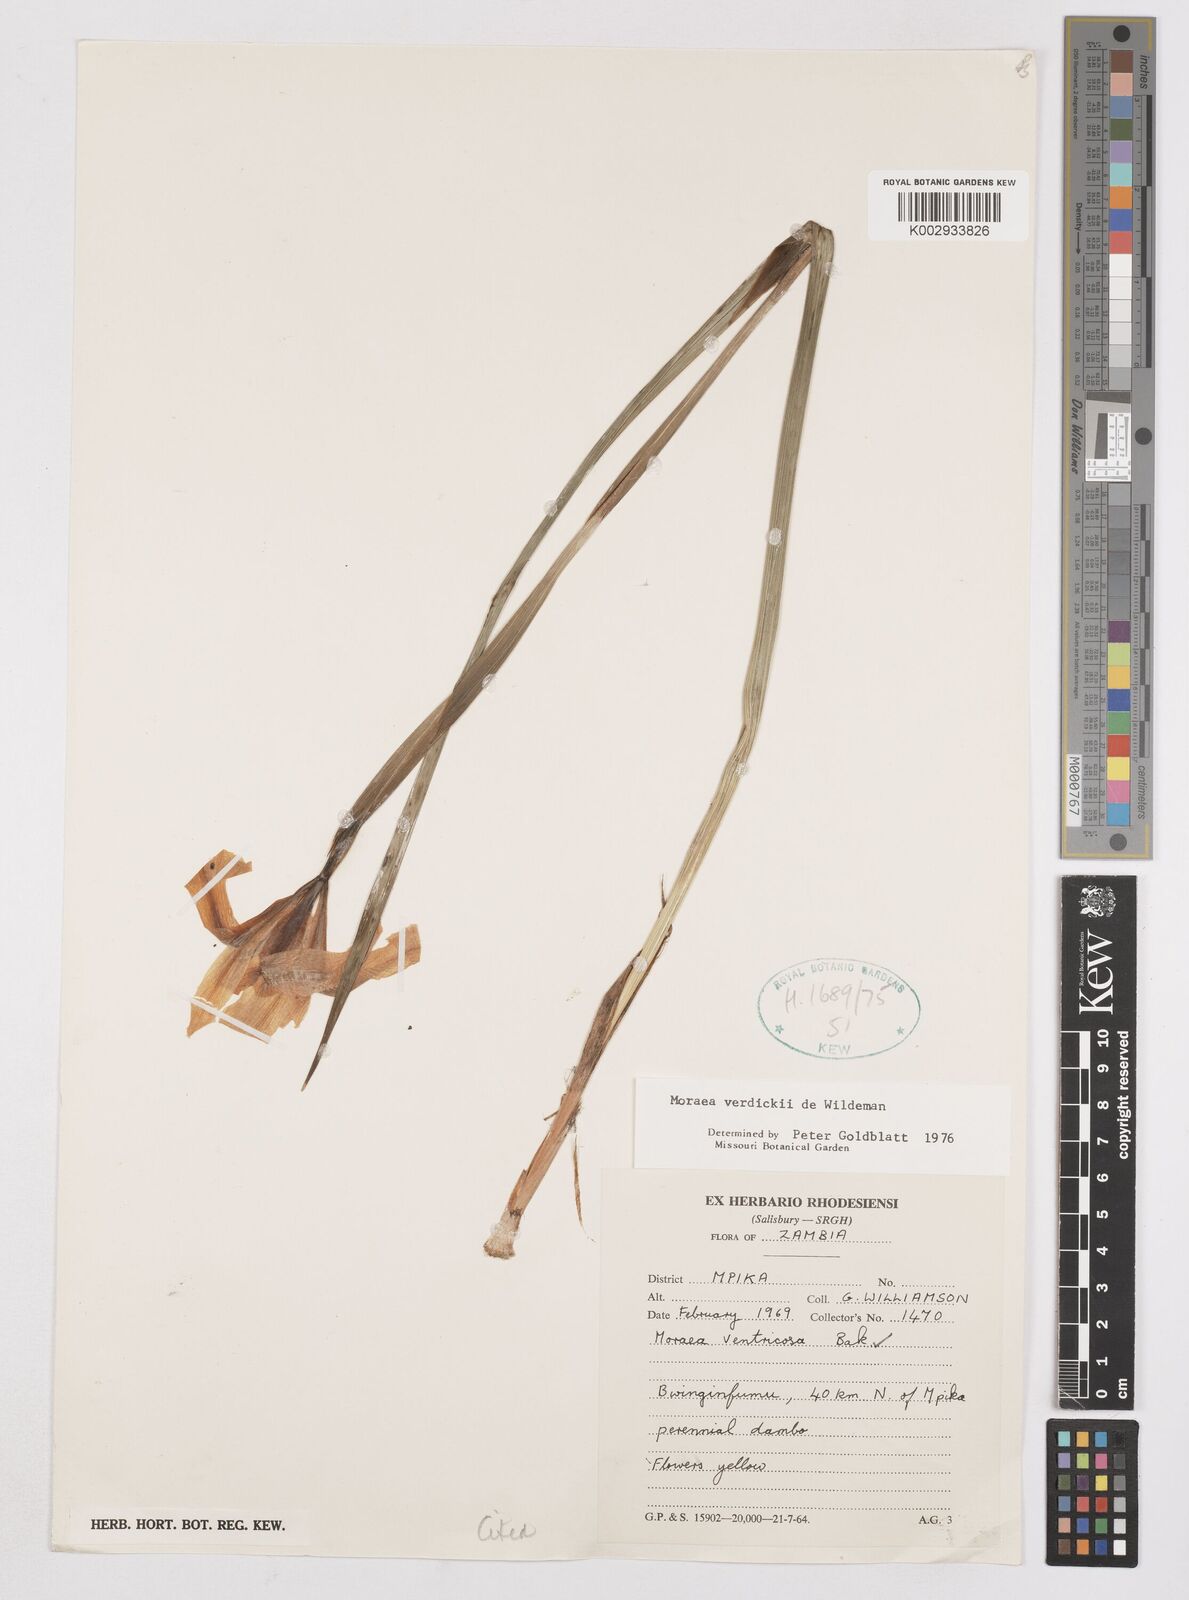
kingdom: Plantae
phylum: Tracheophyta
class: Liliopsida
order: Asparagales
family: Iridaceae
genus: Moraea
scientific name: Moraea verdickii
